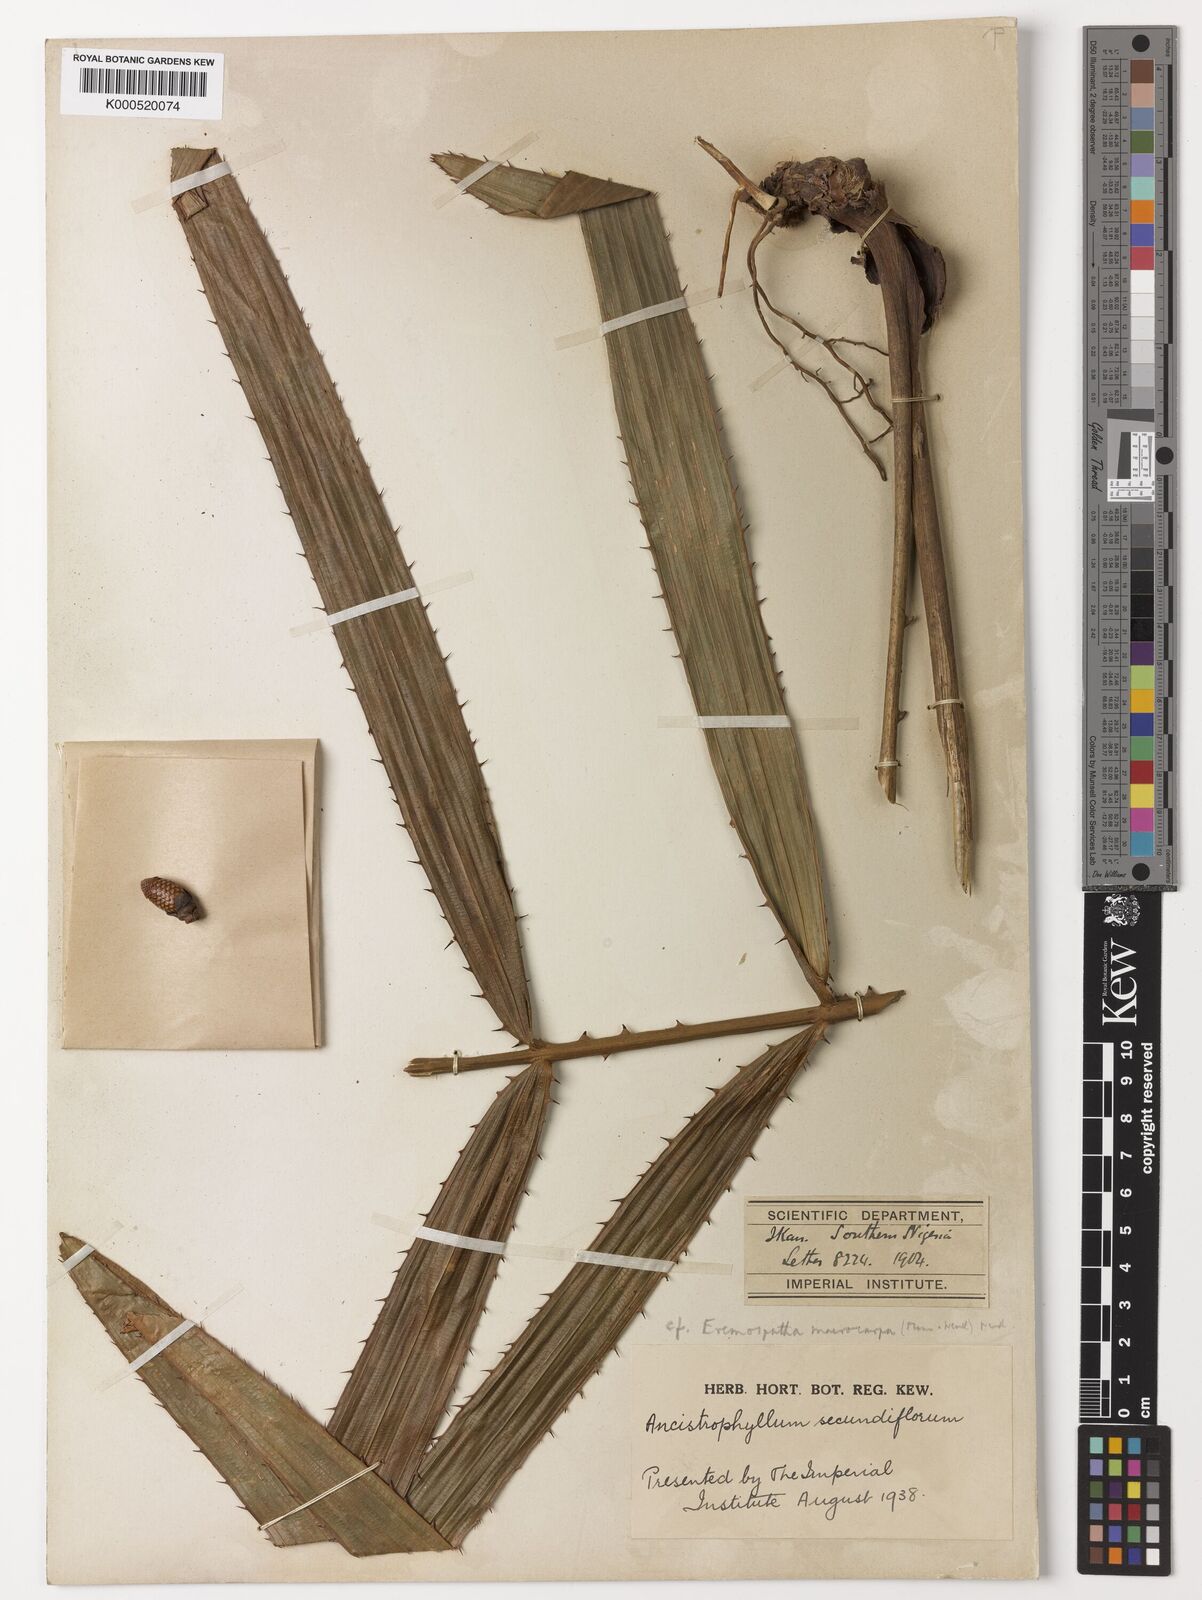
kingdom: Plantae
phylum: Tracheophyta
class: Liliopsida
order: Arecales
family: Arecaceae
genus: Eremospatha
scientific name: Eremospatha
